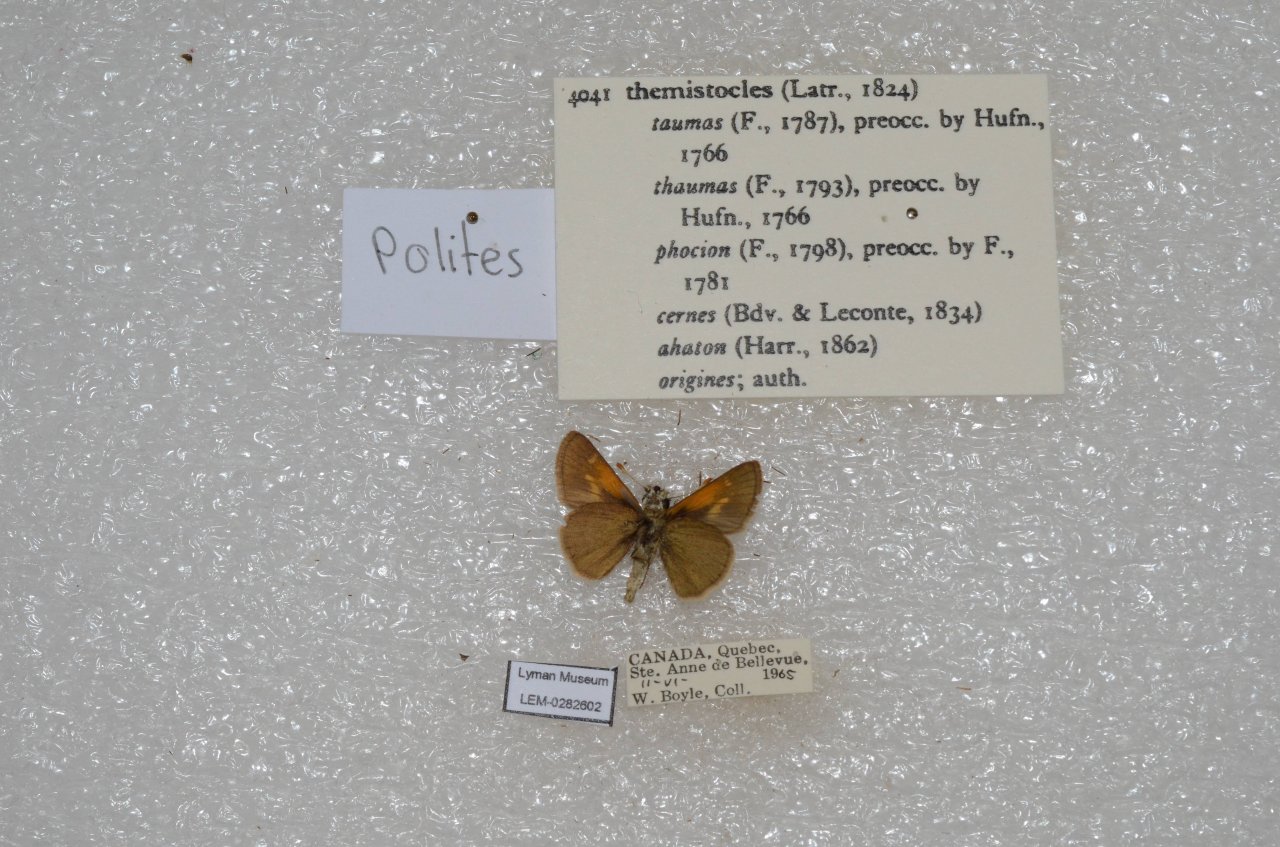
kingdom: Animalia
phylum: Arthropoda
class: Insecta
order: Lepidoptera
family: Hesperiidae
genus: Polites
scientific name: Polites themistocles
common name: Tawny-edged Skipper
